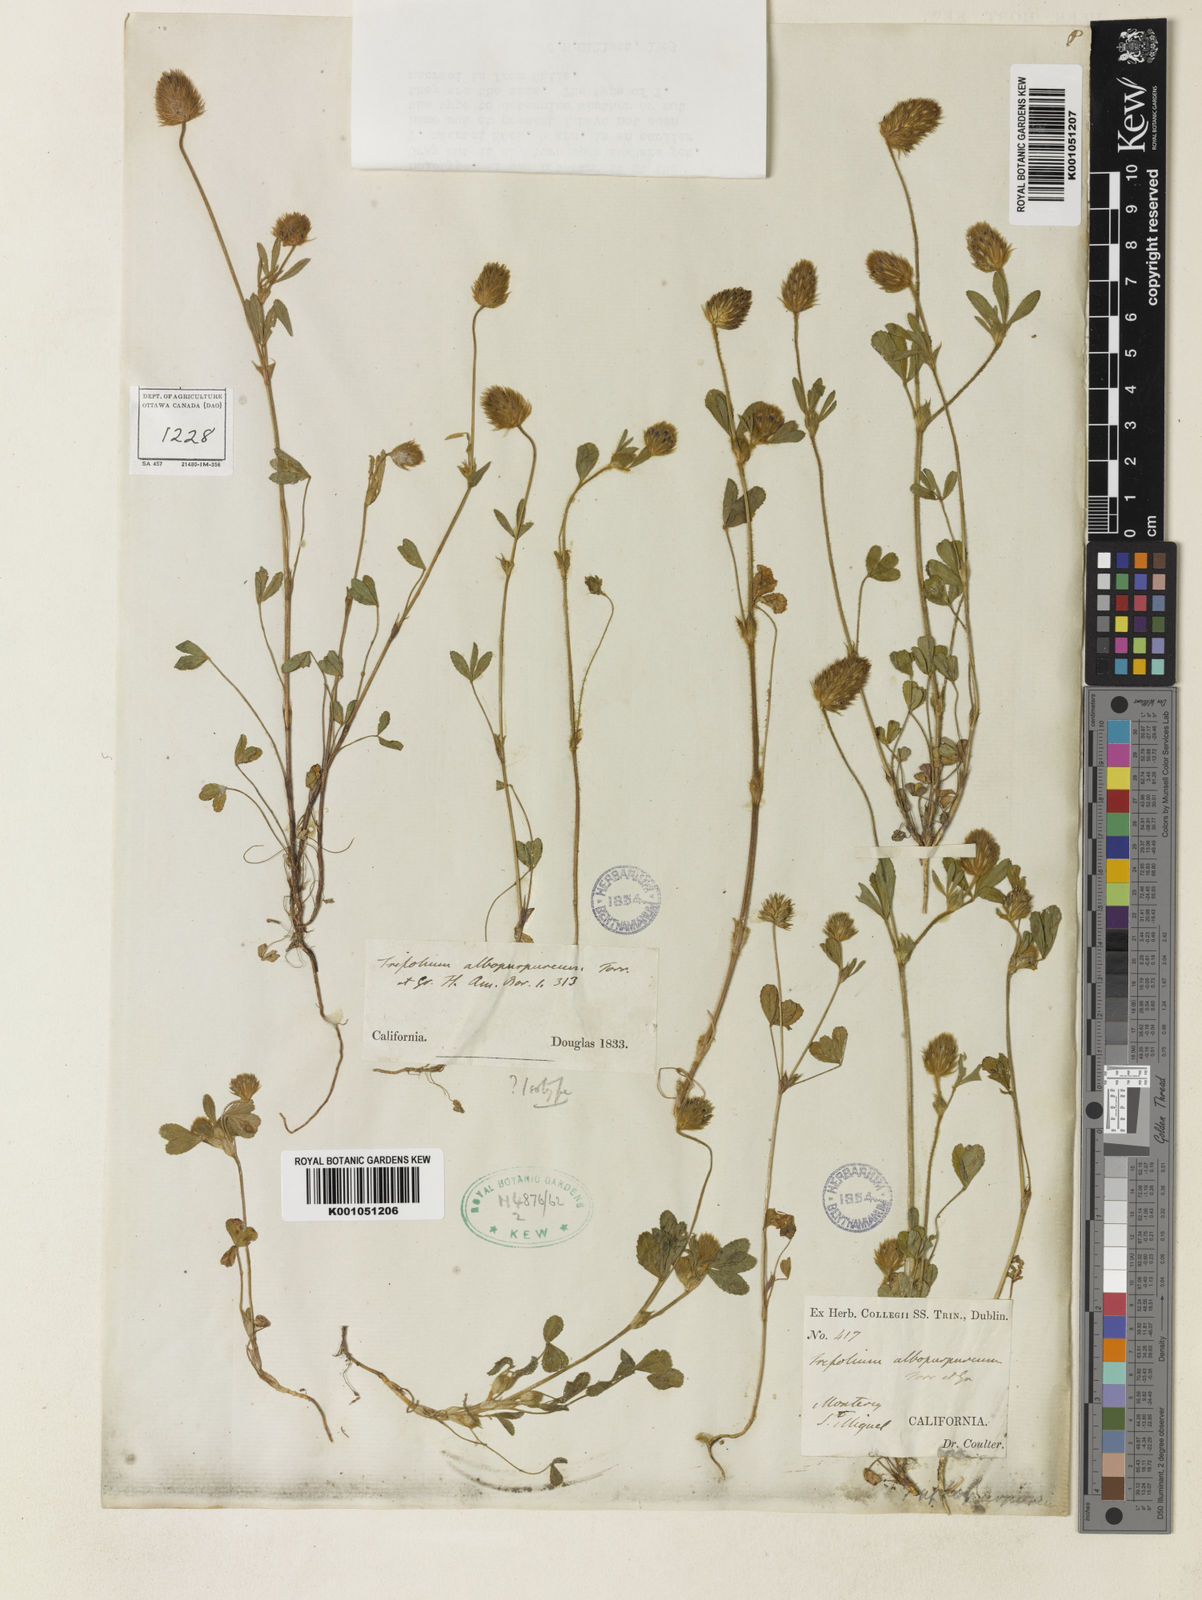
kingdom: Plantae
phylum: Tracheophyta
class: Magnoliopsida
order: Fabales
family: Fabaceae
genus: Trifolium
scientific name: Trifolium albopurpureum
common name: Rancheria clover
